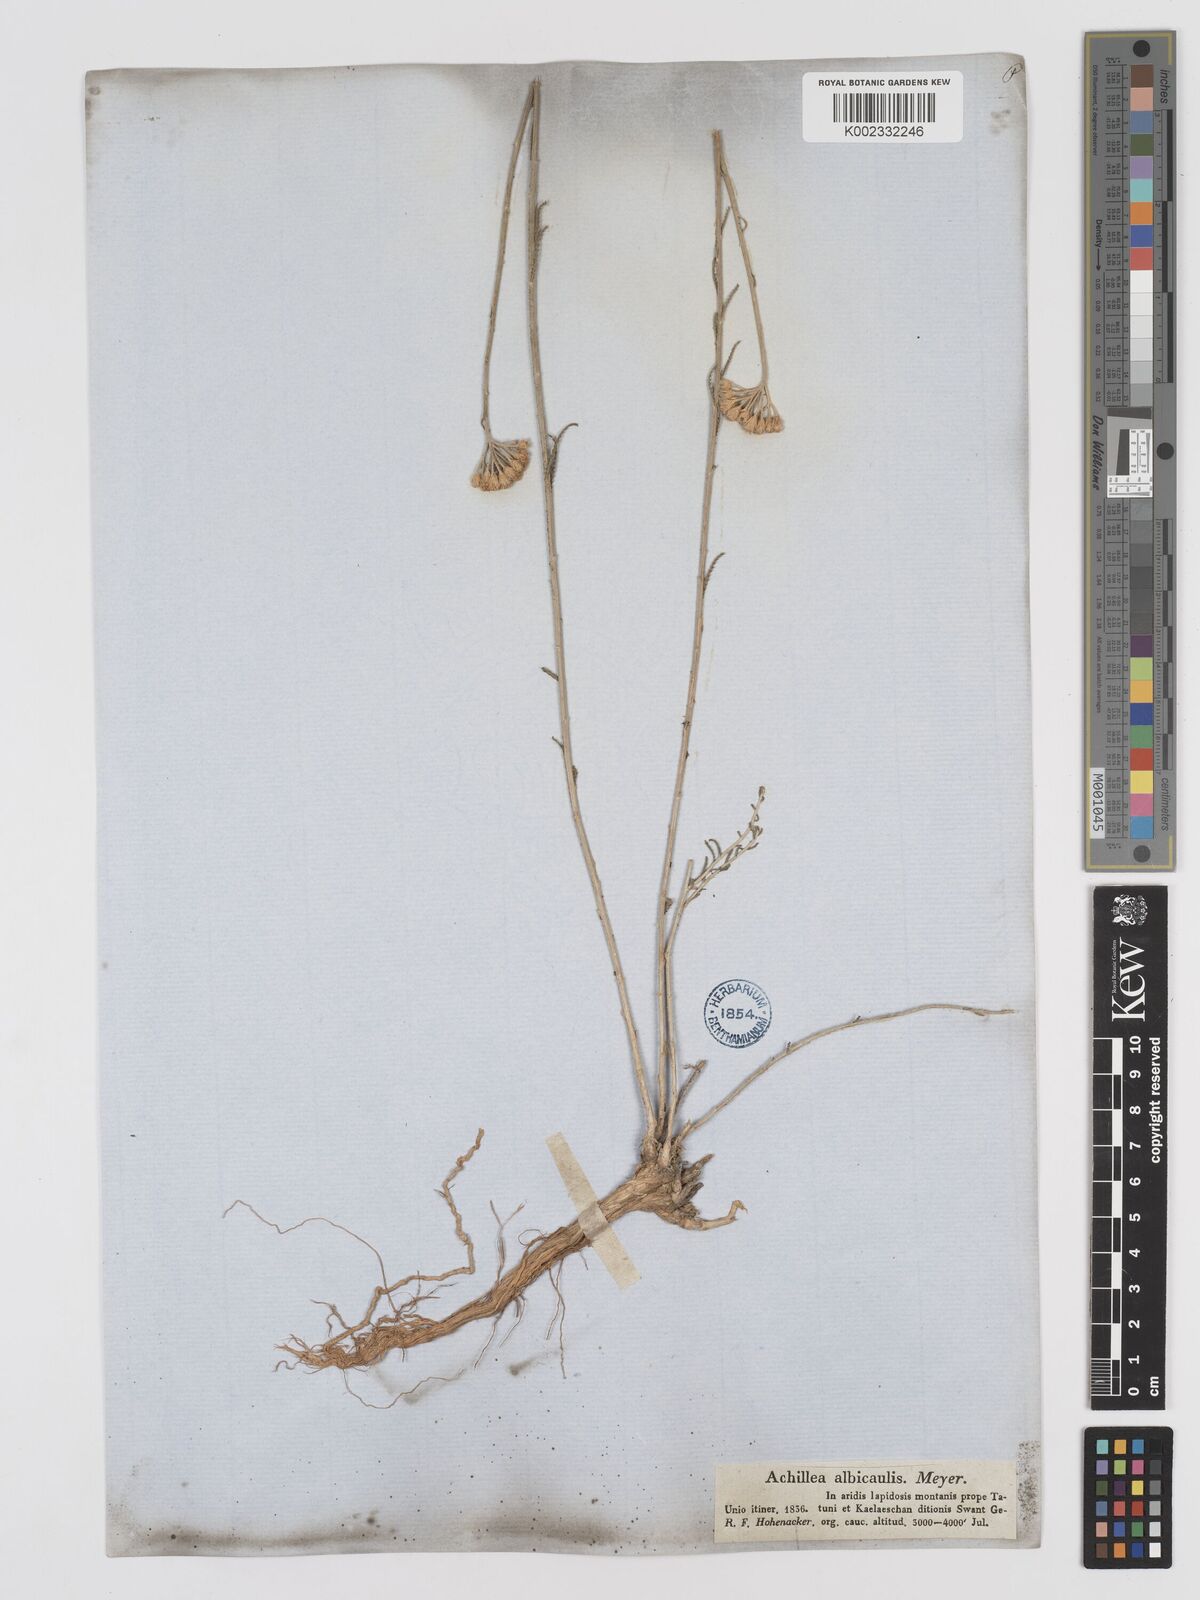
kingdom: Plantae
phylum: Tracheophyta
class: Magnoliopsida
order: Asterales
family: Asteraceae
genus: Achillea
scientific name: Achillea tenuifolia
